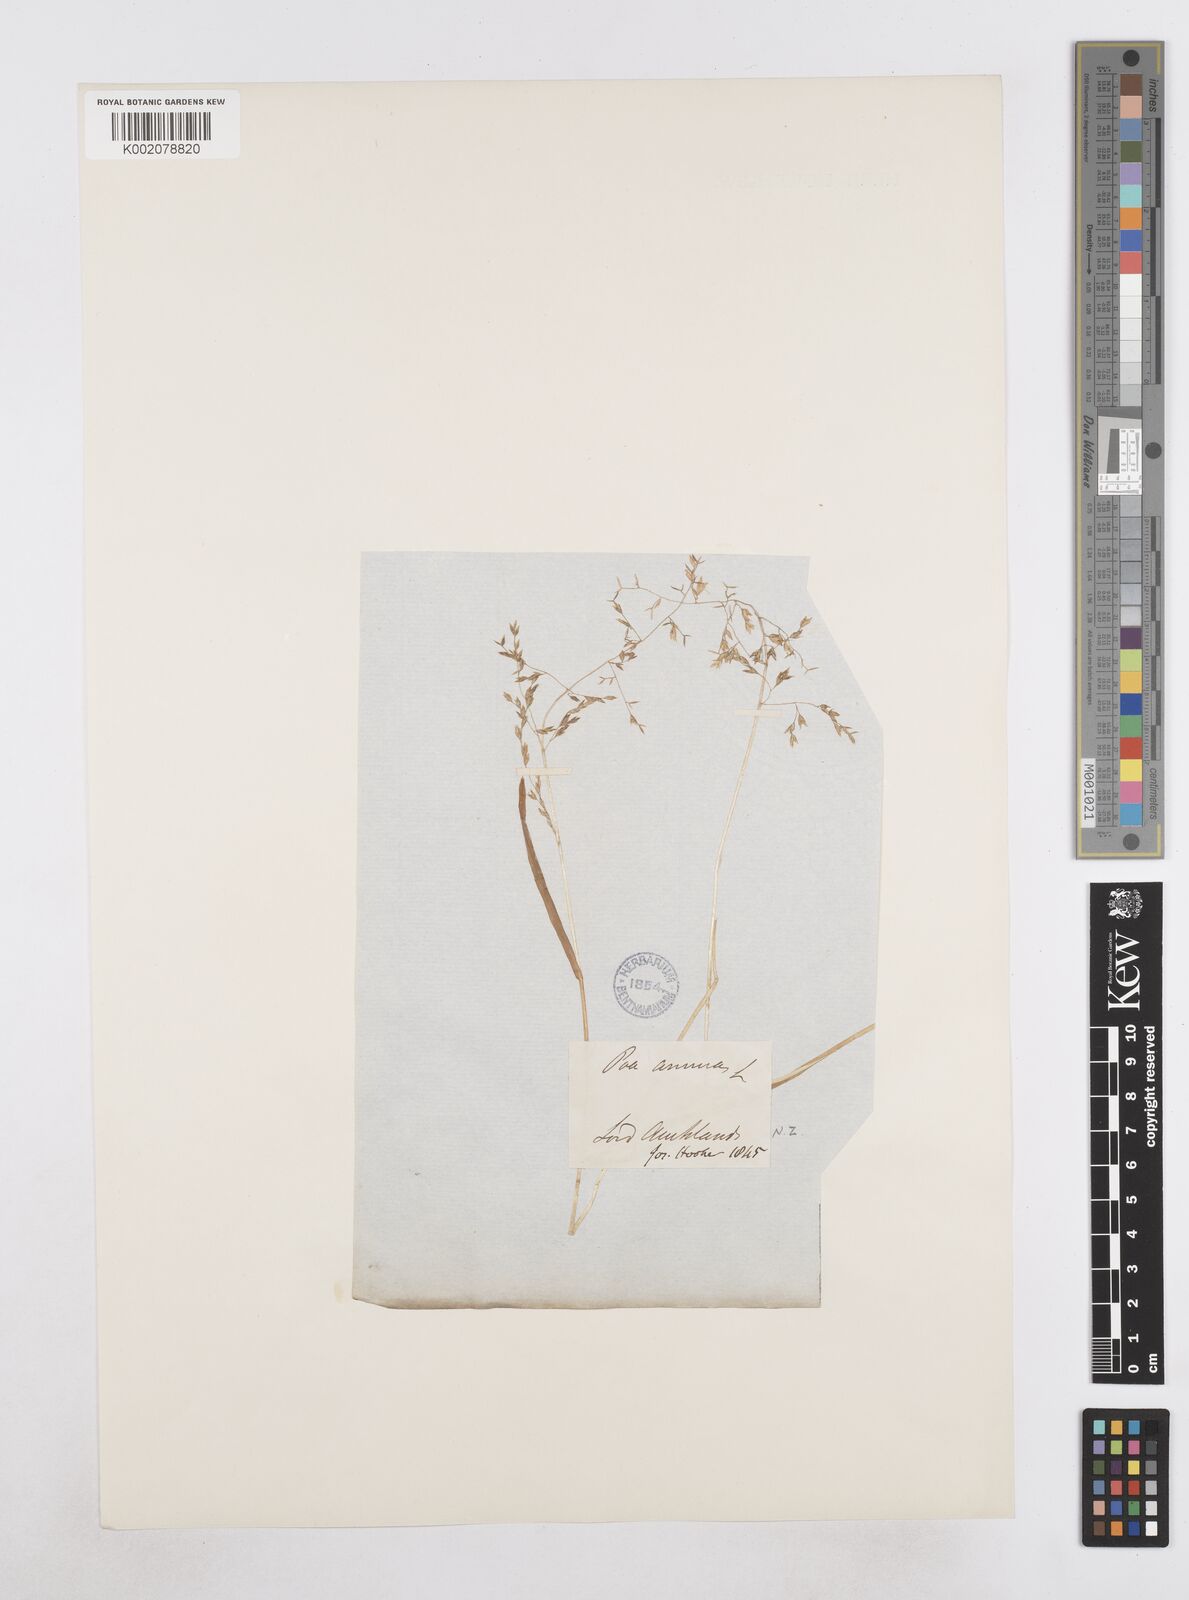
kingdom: Plantae
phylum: Tracheophyta
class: Liliopsida
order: Poales
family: Poaceae
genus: Poa
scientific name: Poa annua
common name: Annual bluegrass
